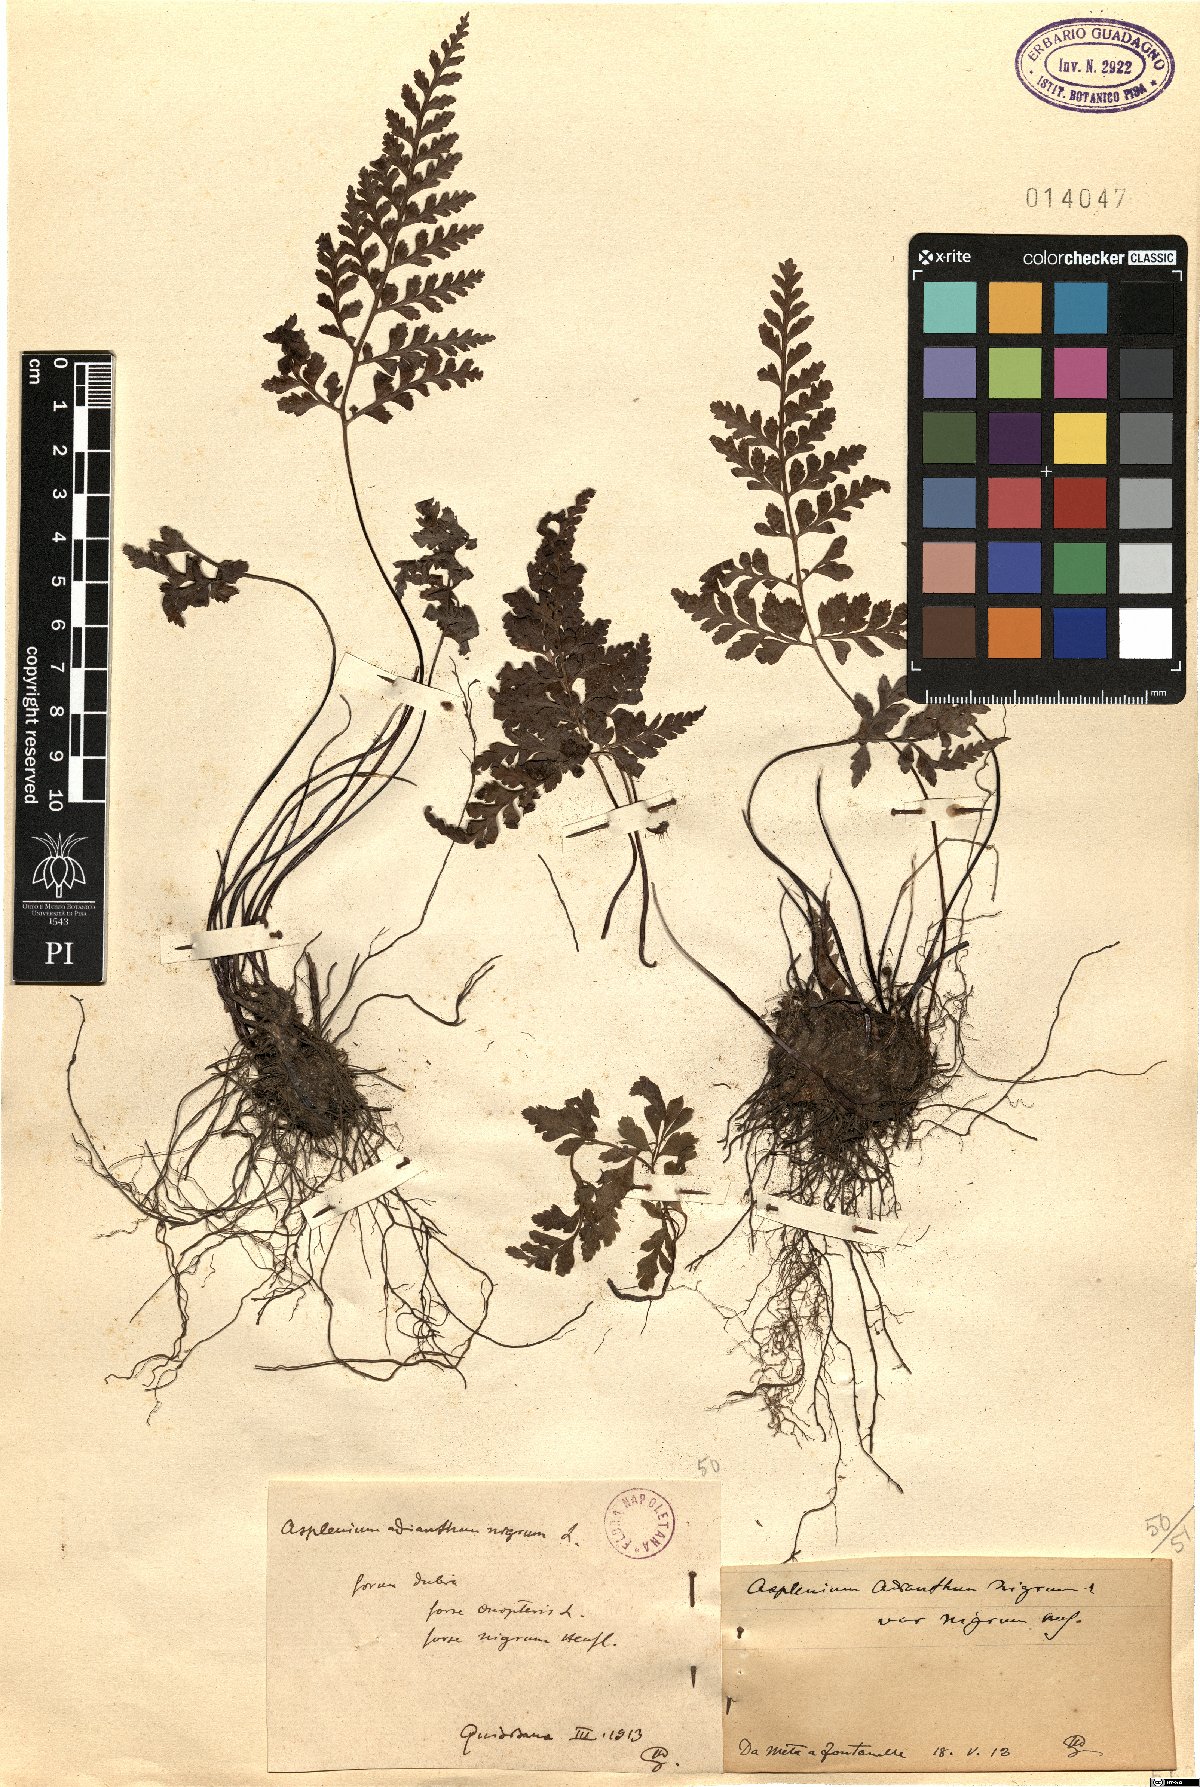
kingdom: Plantae
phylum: Tracheophyta
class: Polypodiopsida
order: Polypodiales
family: Aspleniaceae
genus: Asplenium
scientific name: Asplenium onopteris
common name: Irish spleenwort
